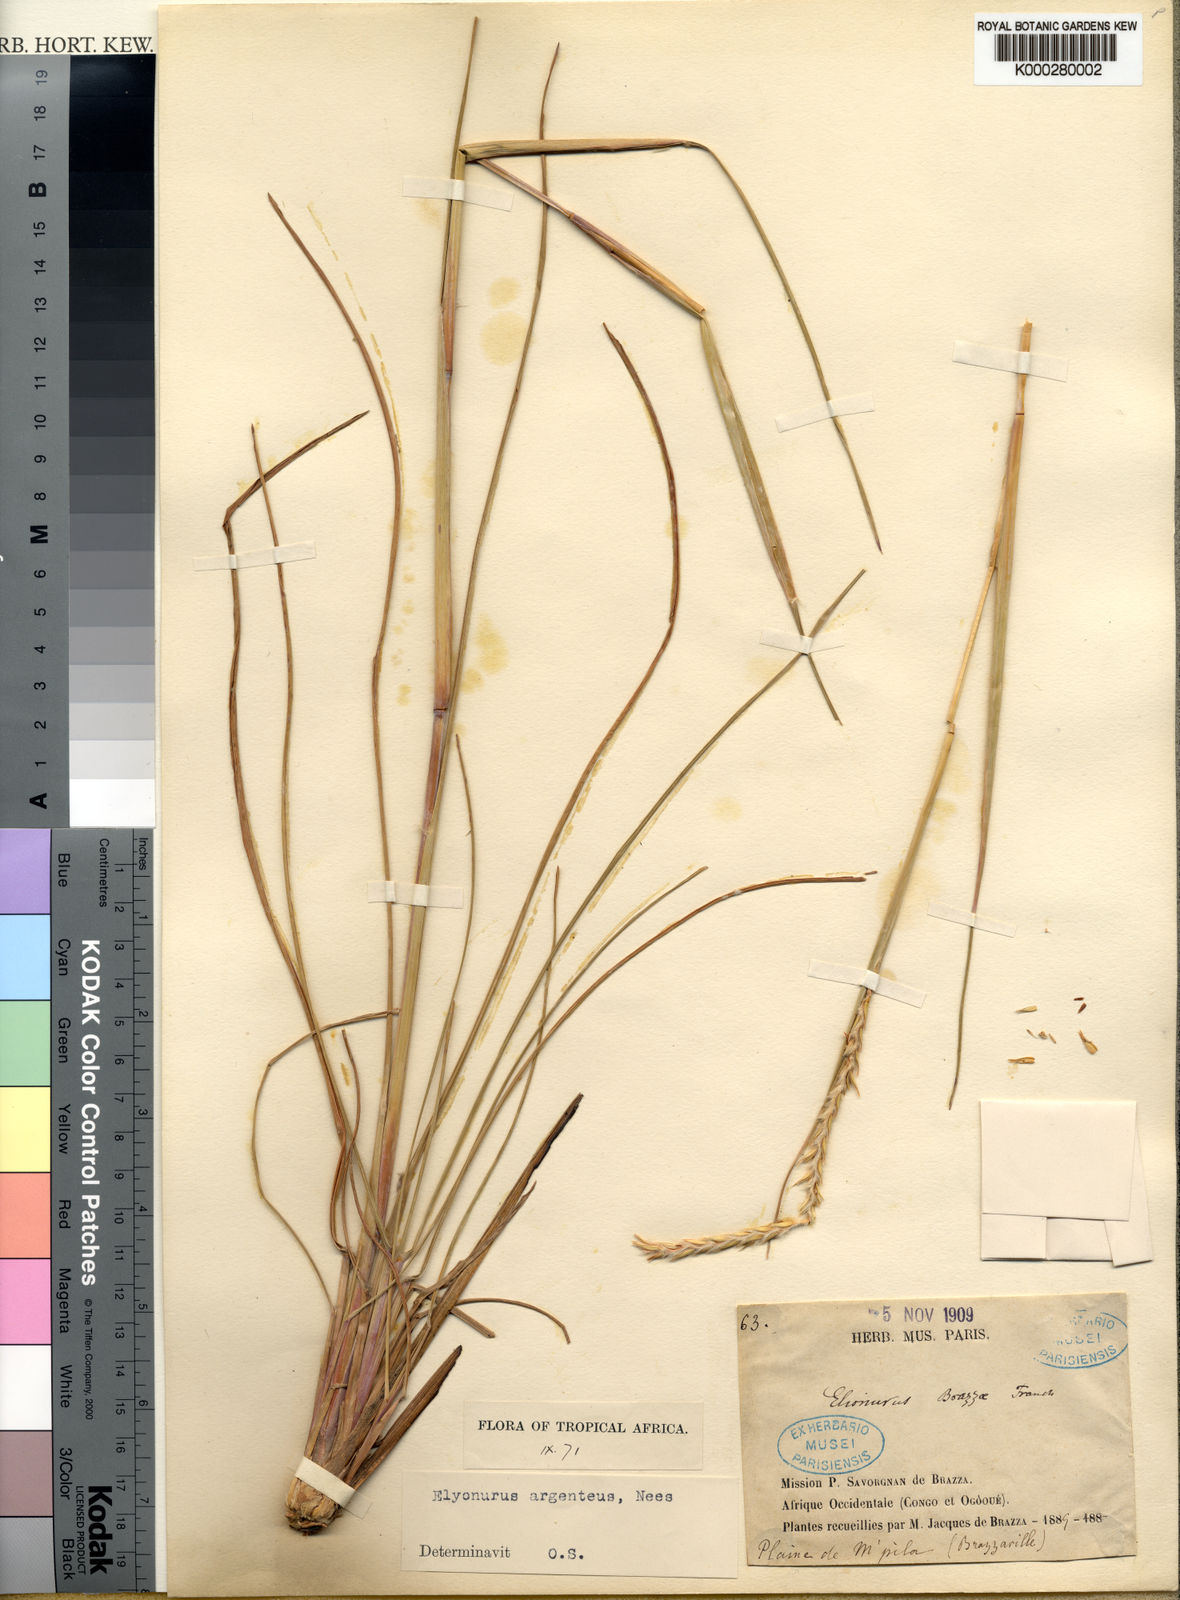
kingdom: Plantae
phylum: Tracheophyta
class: Liliopsida
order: Poales
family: Poaceae
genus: Elionurus
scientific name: Elionurus platypus
